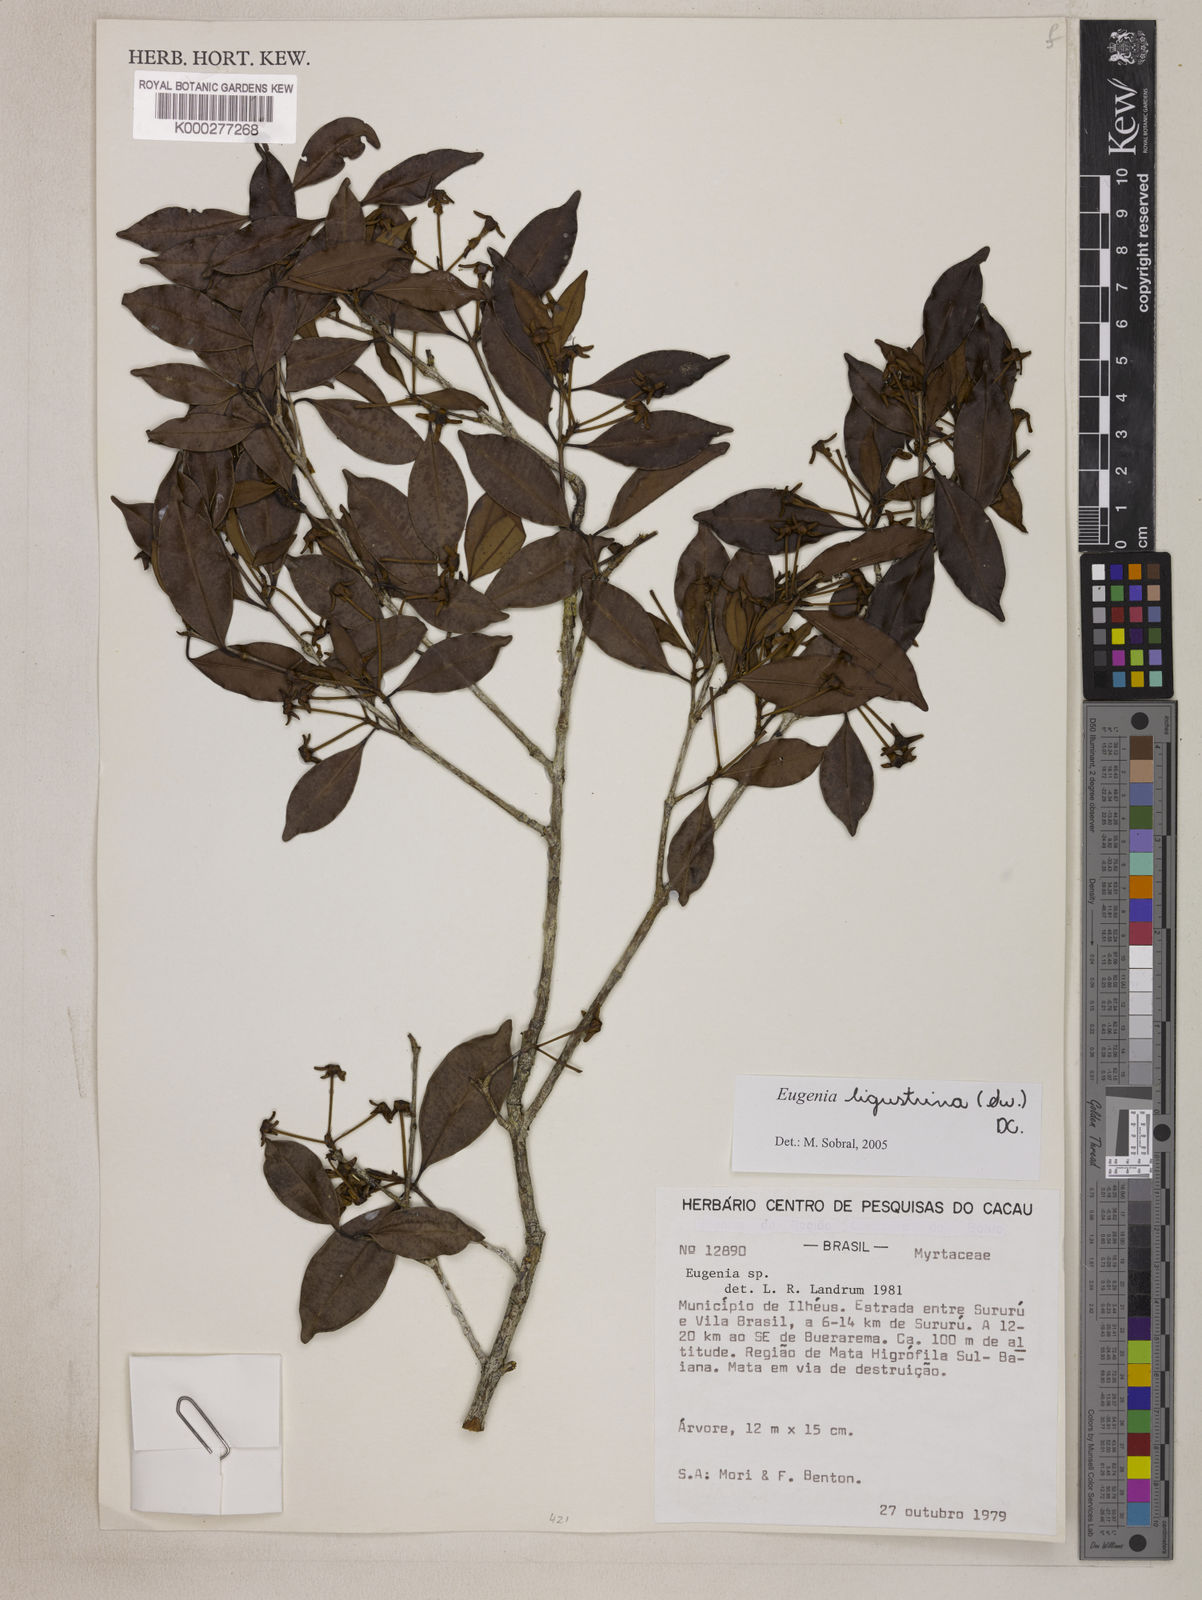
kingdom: Plantae
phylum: Tracheophyta
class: Magnoliopsida
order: Myrtales
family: Myrtaceae
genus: Eugenia
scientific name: Eugenia ligustrina
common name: Privet stopper
